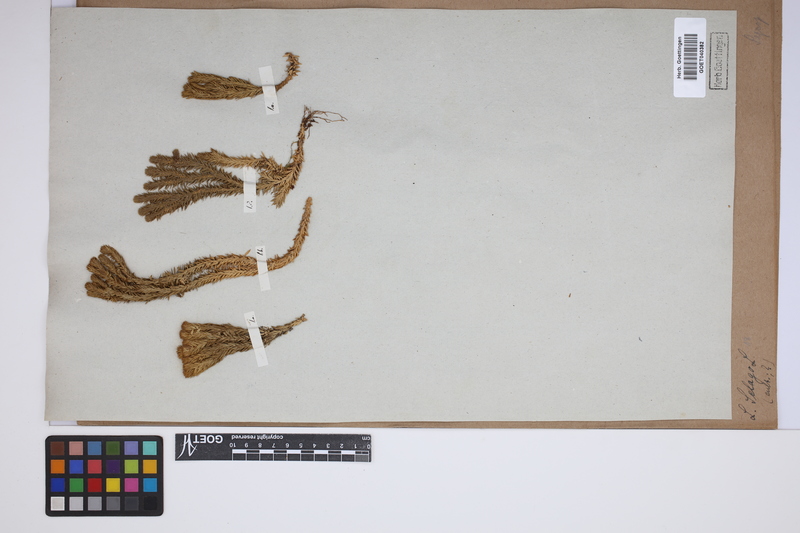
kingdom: Plantae
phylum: Tracheophyta
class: Lycopodiopsida
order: Lycopodiales
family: Lycopodiaceae
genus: Huperzia
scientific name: Huperzia selago
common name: Northern firmoss
